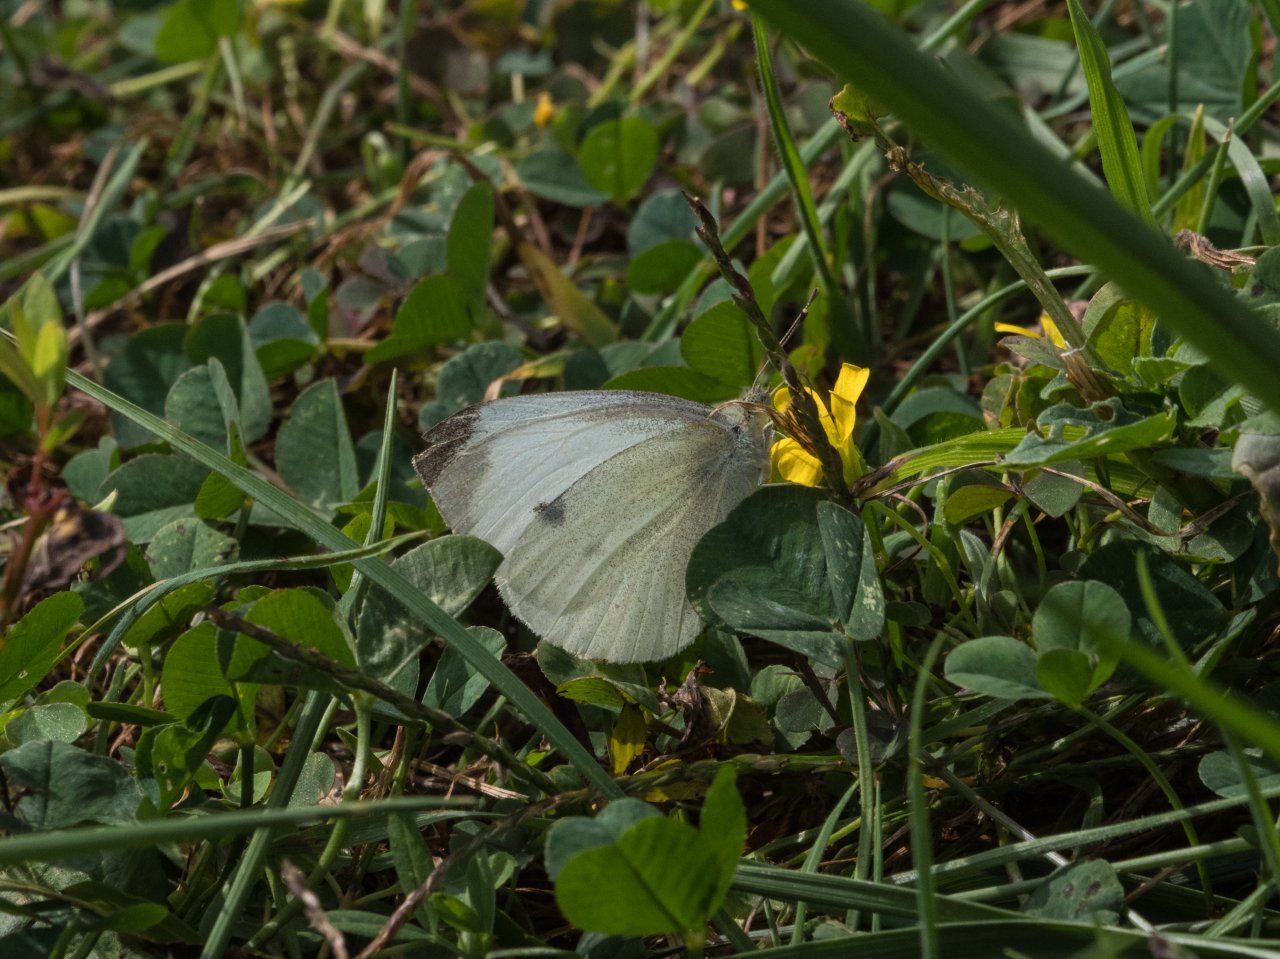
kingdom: Animalia
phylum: Arthropoda
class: Insecta
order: Lepidoptera
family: Pieridae
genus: Pieris
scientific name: Pieris rapae
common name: Cabbage White
